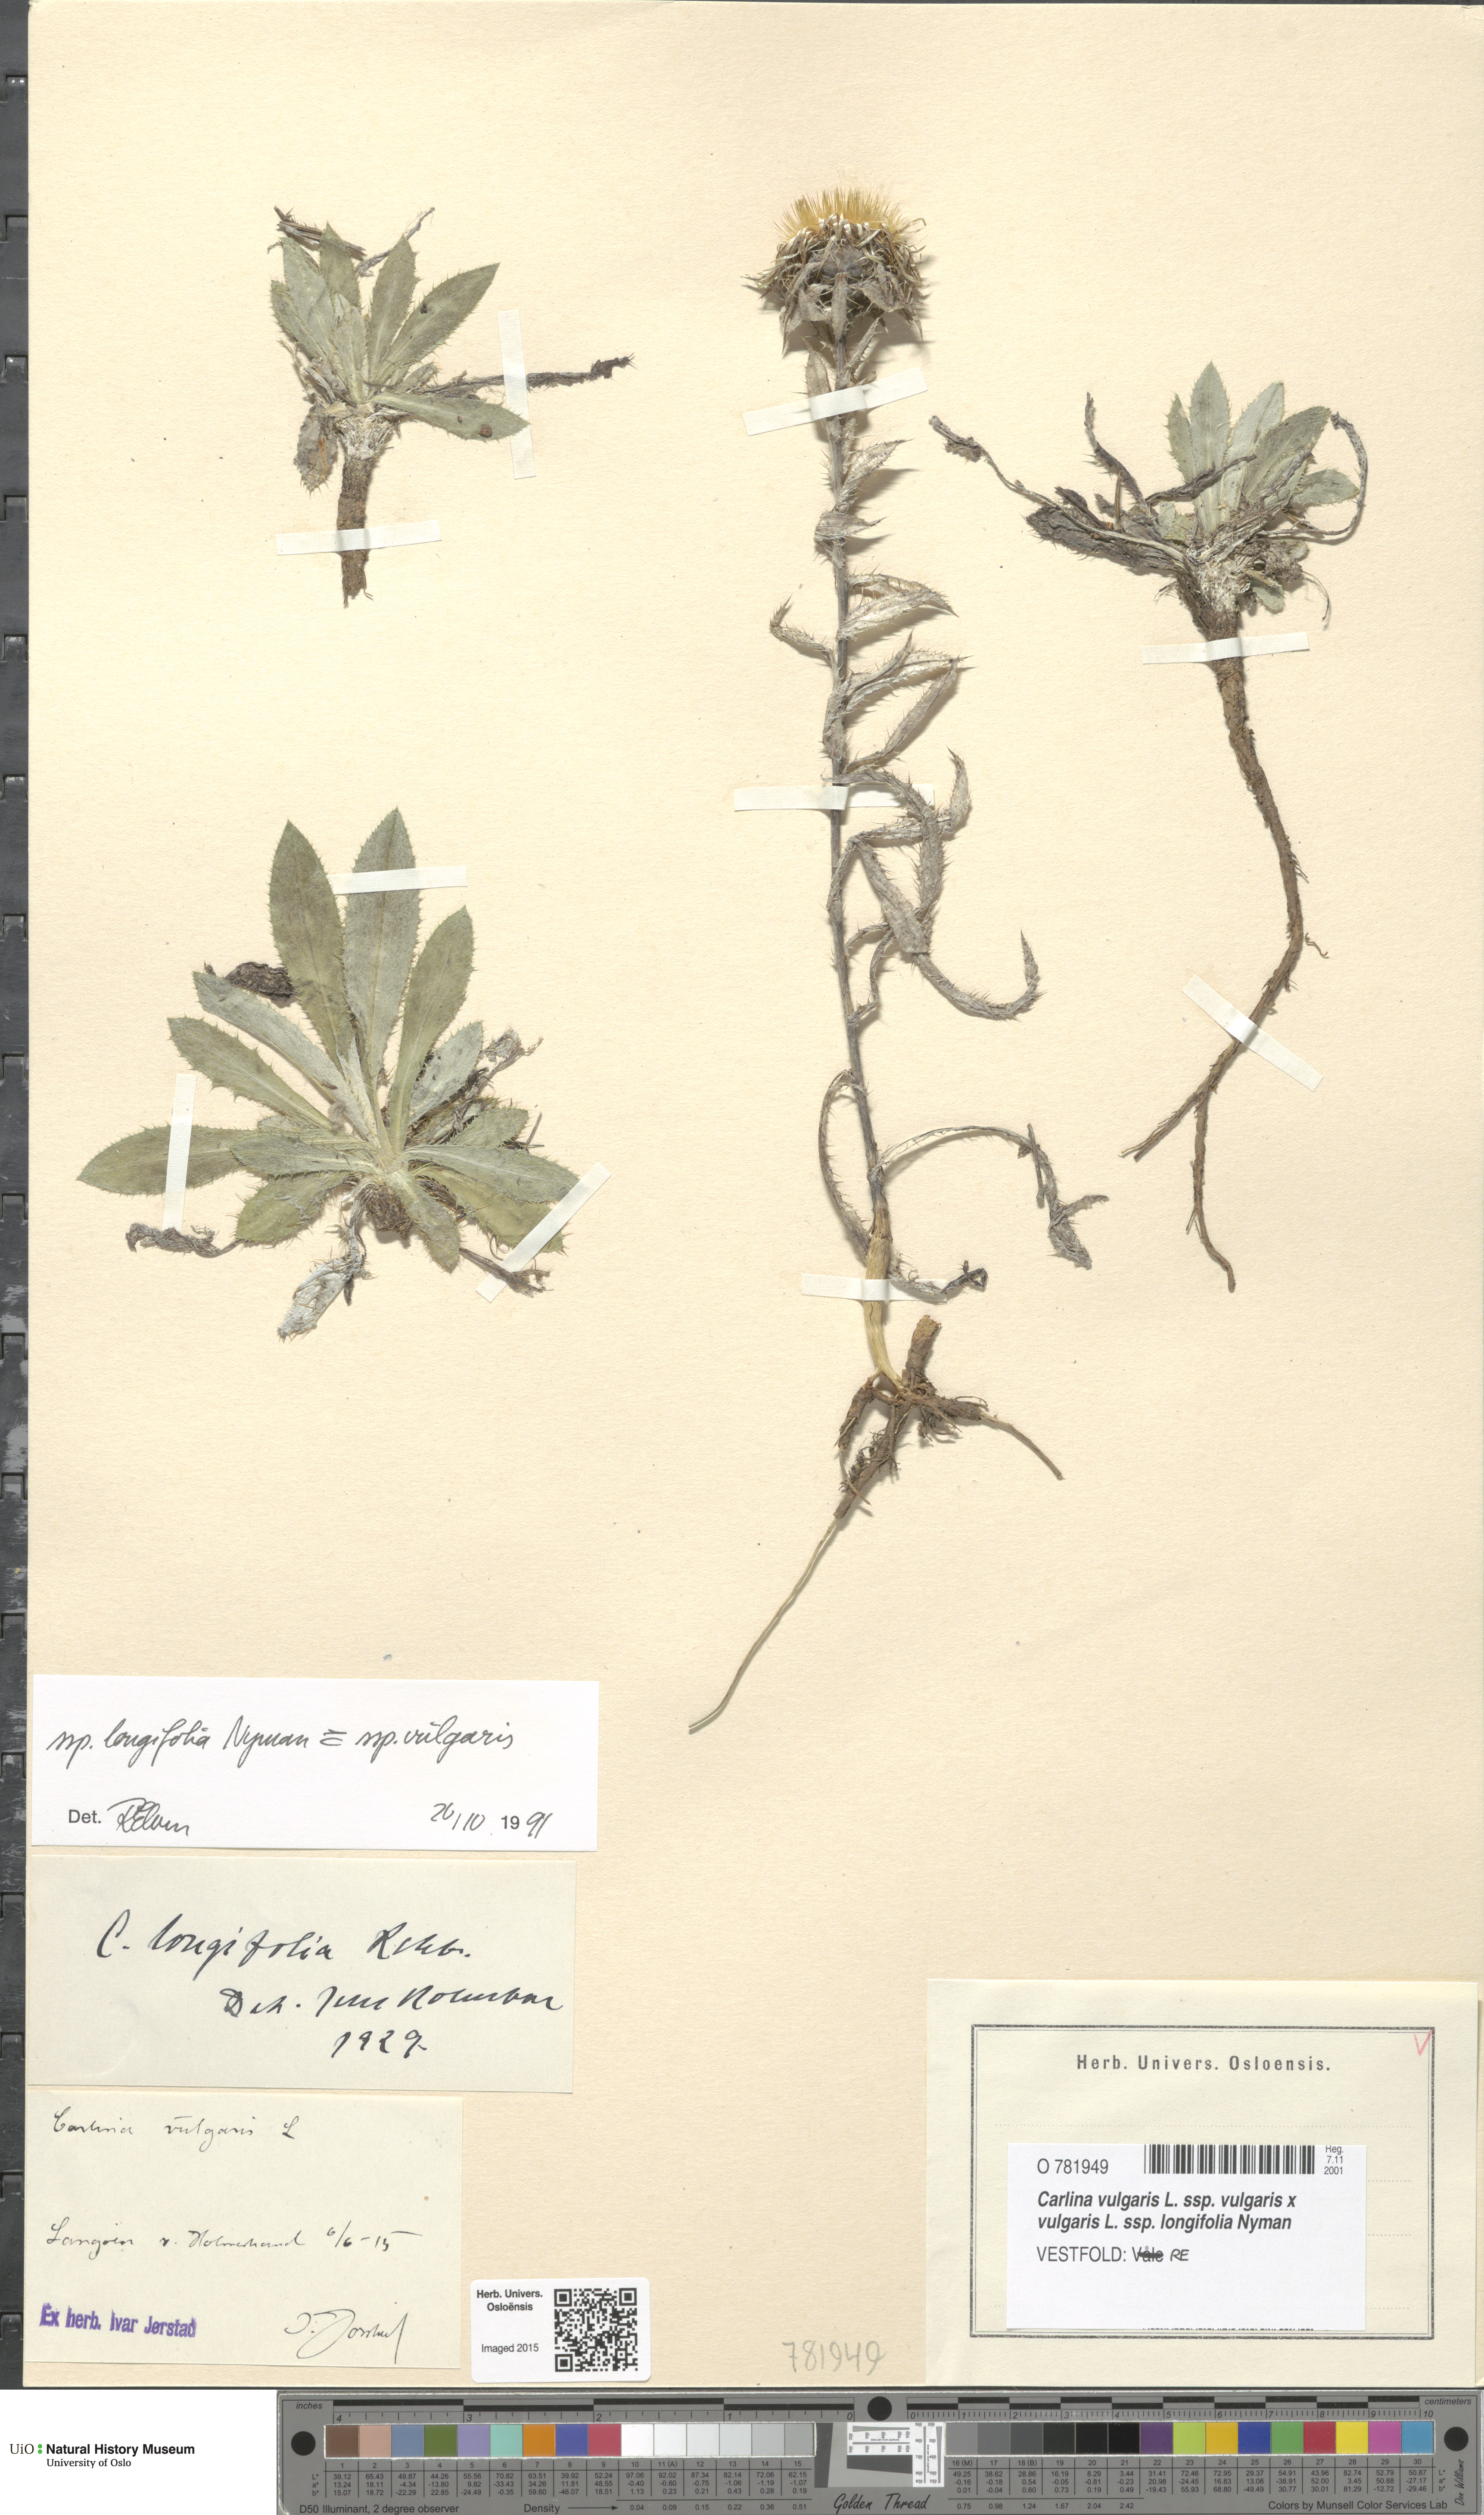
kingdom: Plantae
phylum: Tracheophyta
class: Magnoliopsida
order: Asterales
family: Asteraceae
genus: Carlina
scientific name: Carlina
